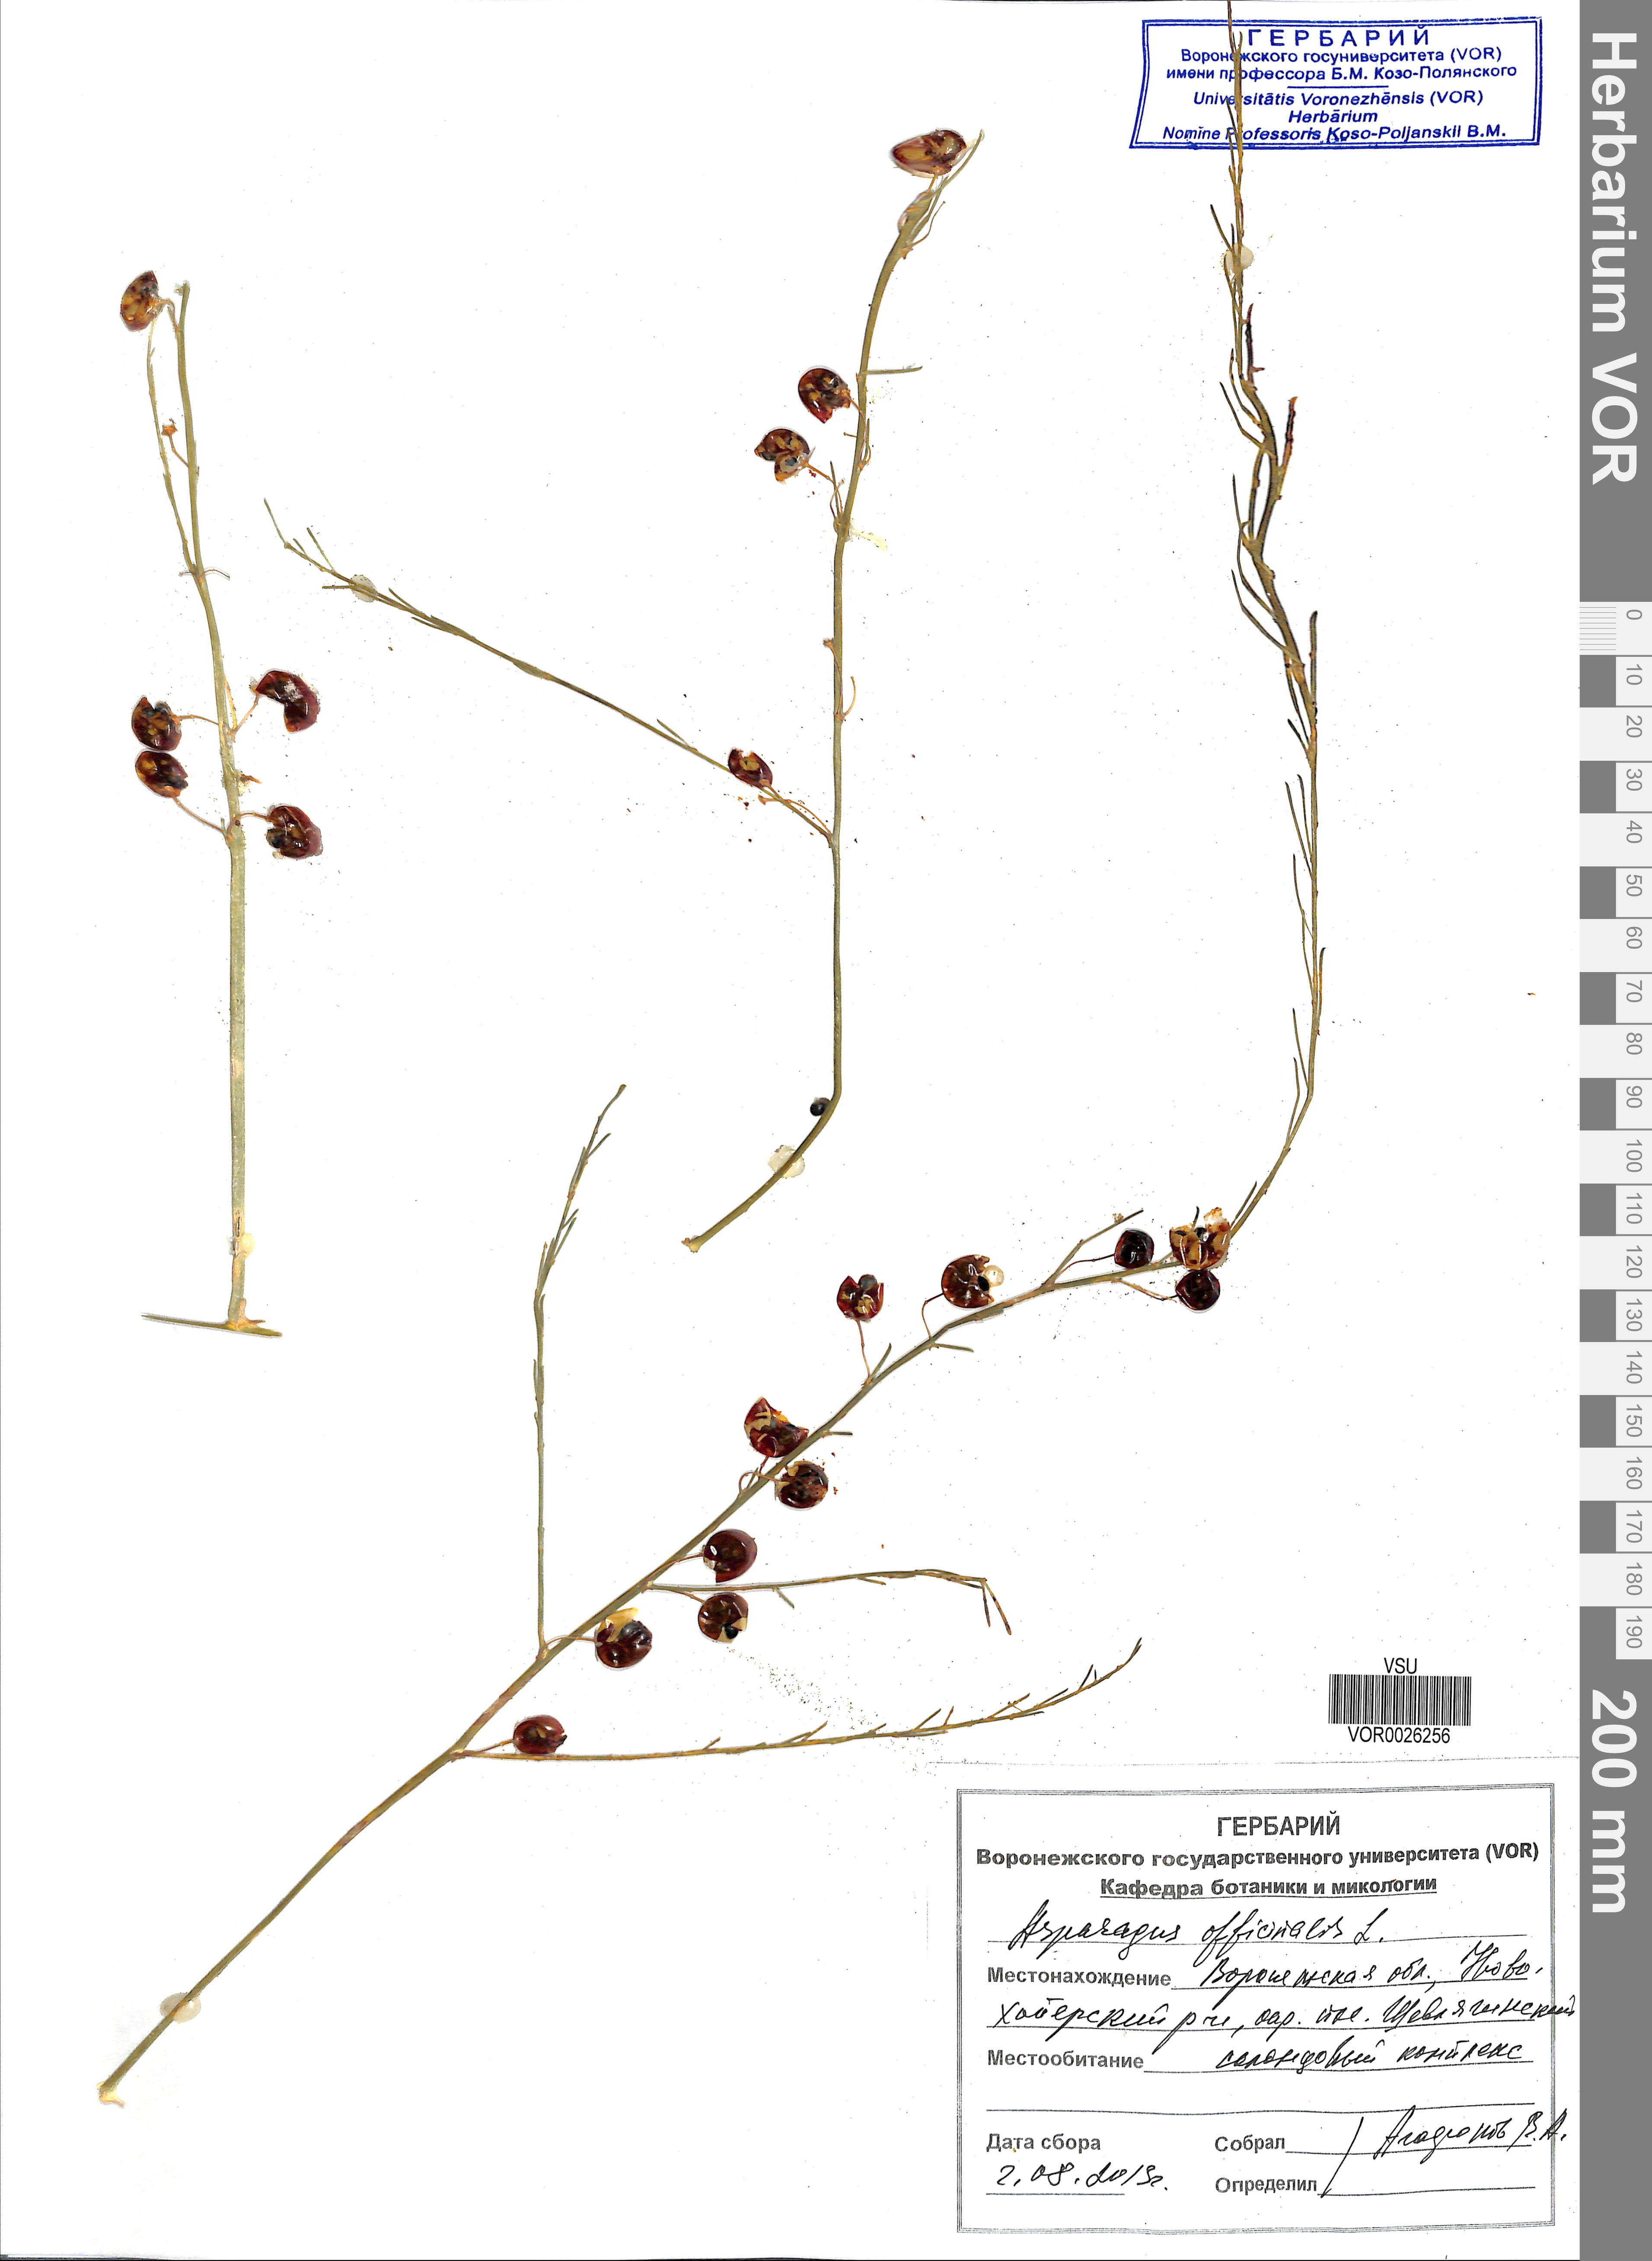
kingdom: Plantae
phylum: Tracheophyta
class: Liliopsida
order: Asparagales
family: Asparagaceae
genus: Asparagus
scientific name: Asparagus officinalis
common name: Garden asparagus
